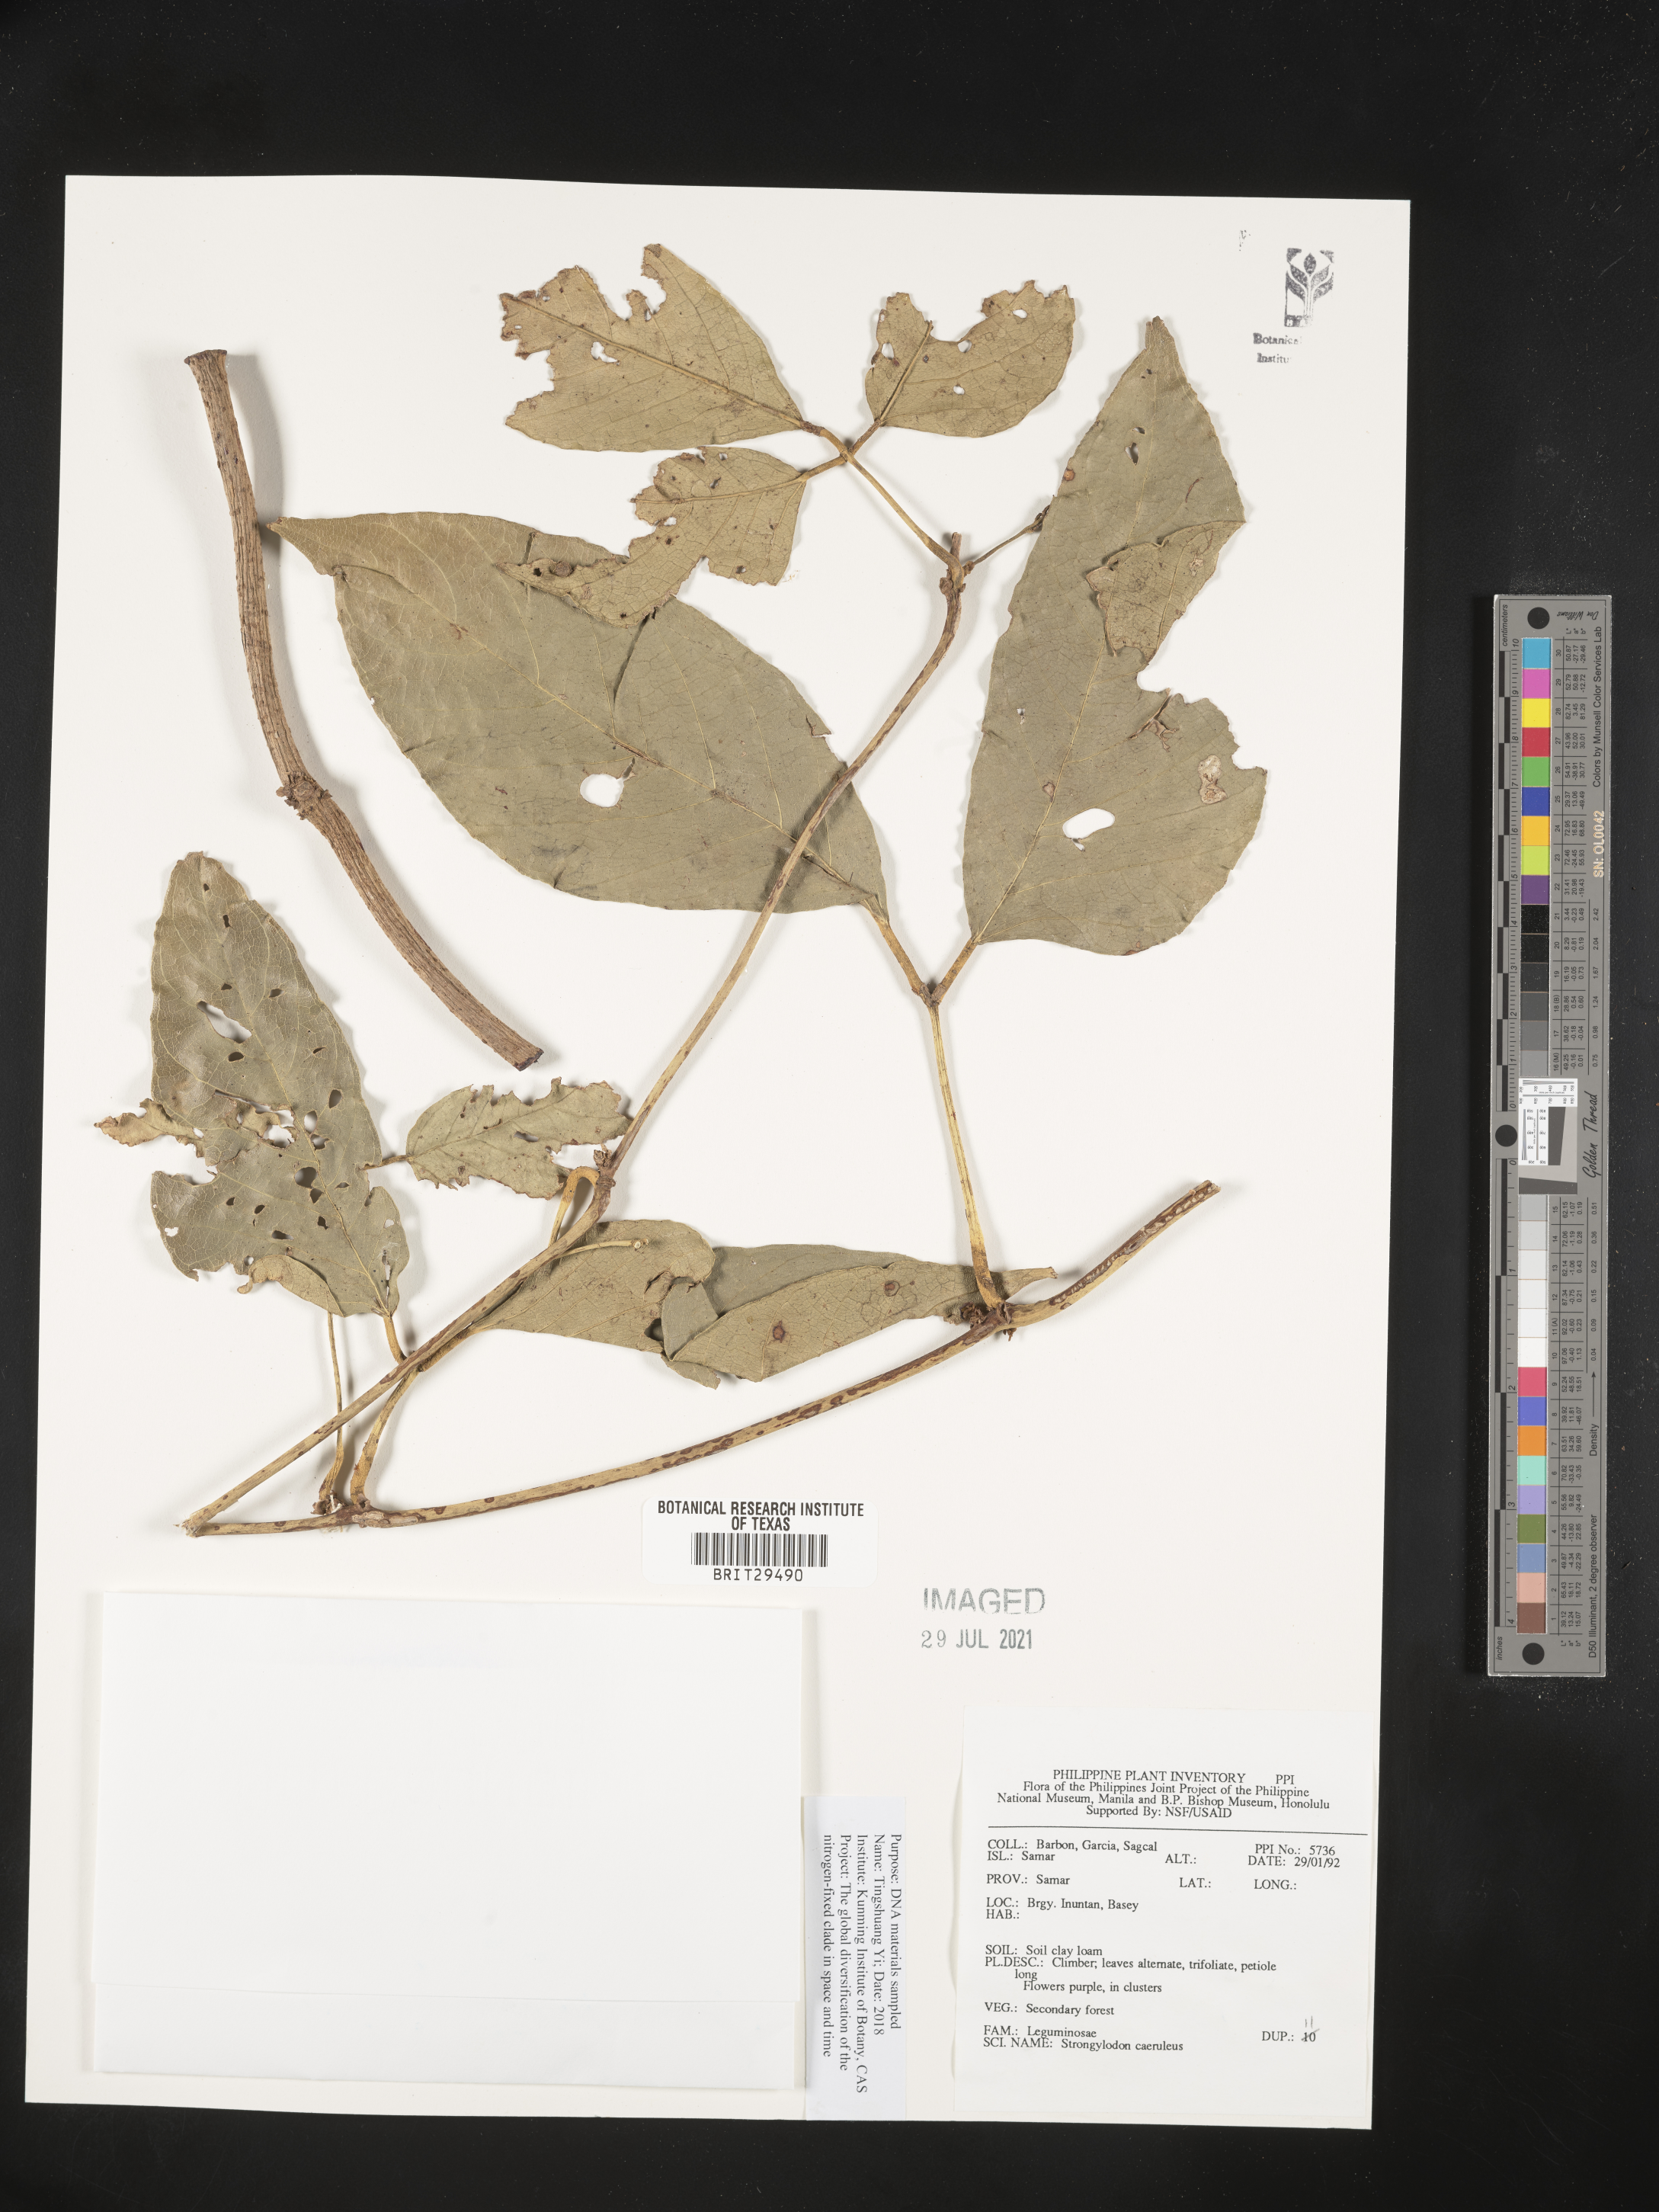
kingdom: Plantae
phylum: Tracheophyta
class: Magnoliopsida
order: Fabales
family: Fabaceae
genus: Strongylodon
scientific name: Strongylodon caeruleus
